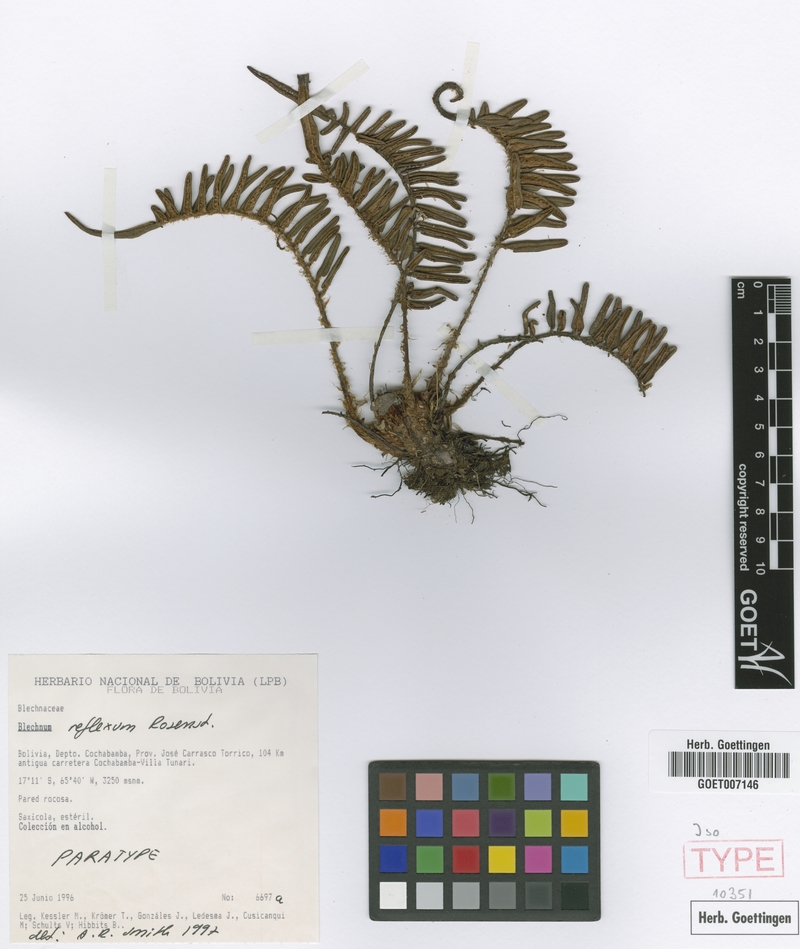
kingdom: Plantae
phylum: Tracheophyta
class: Polypodiopsida
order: Polypodiales
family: Blechnaceae
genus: Parablechnum
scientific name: Parablechnum reflexum
